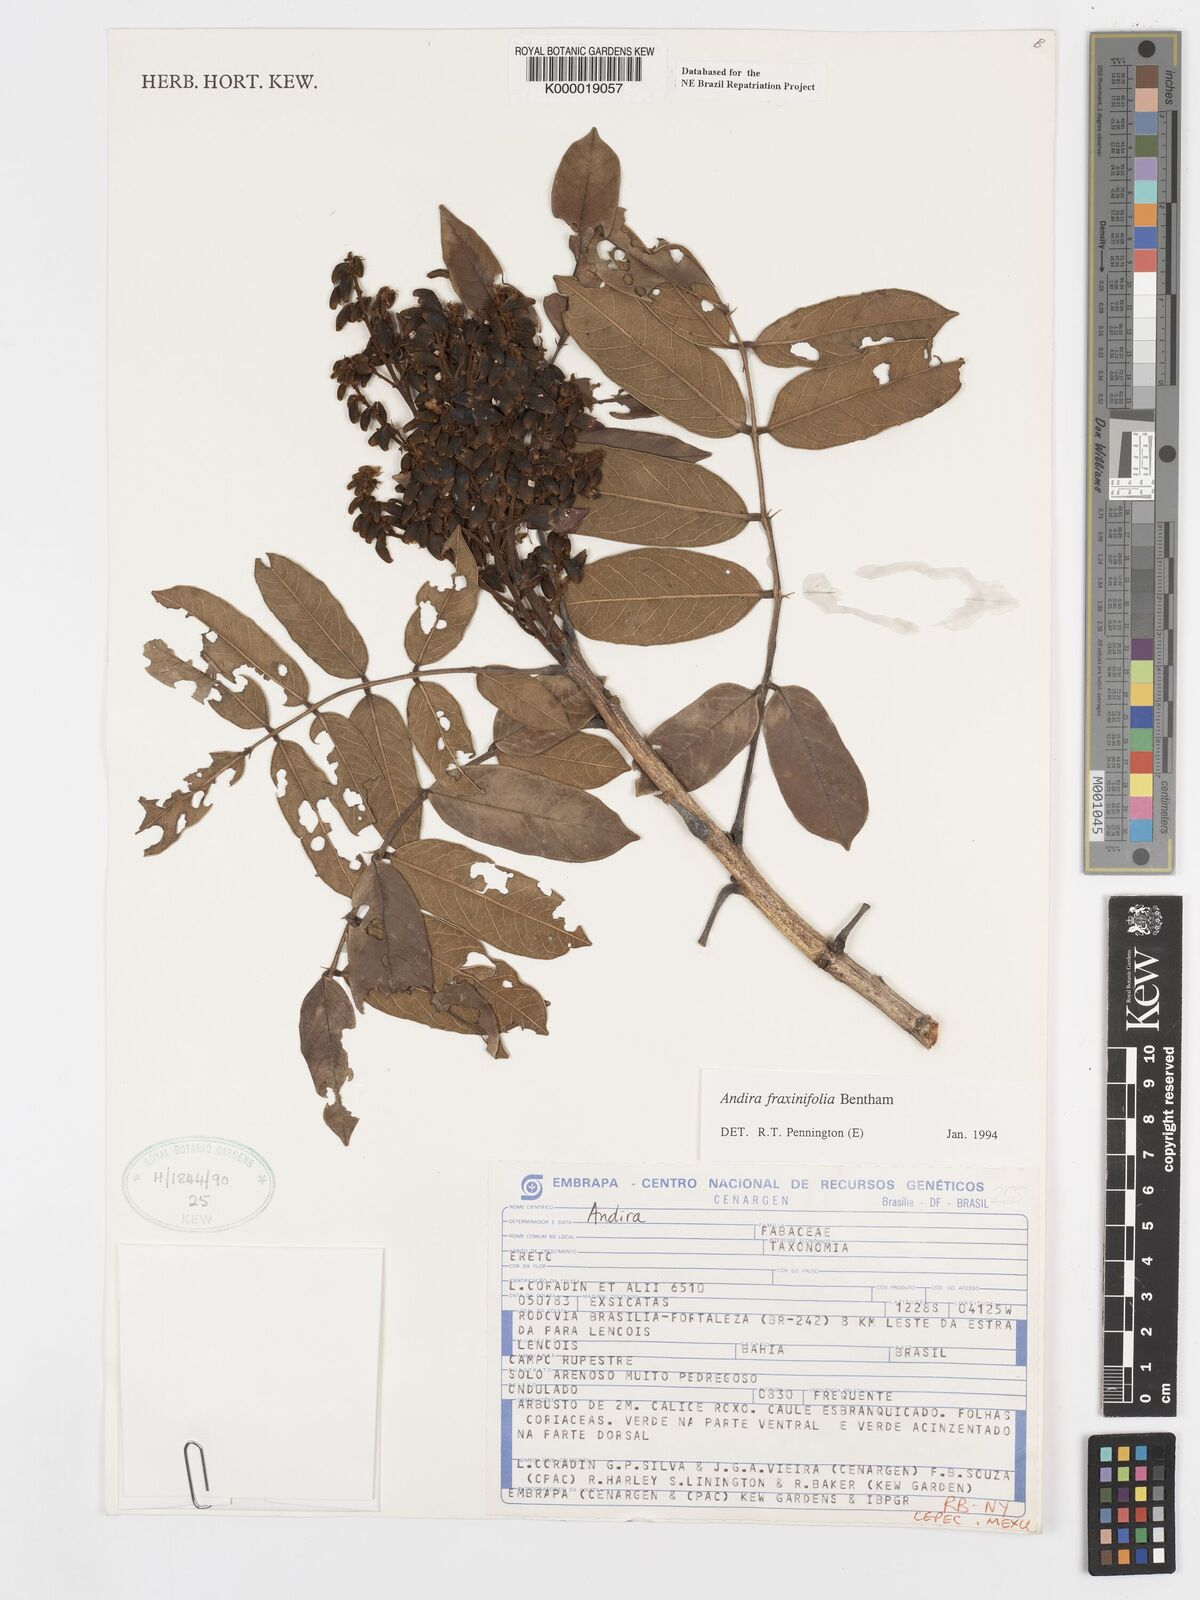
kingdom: Plantae
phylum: Tracheophyta
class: Magnoliopsida
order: Fabales
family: Fabaceae
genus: Andira
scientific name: Andira fraxinifolia
